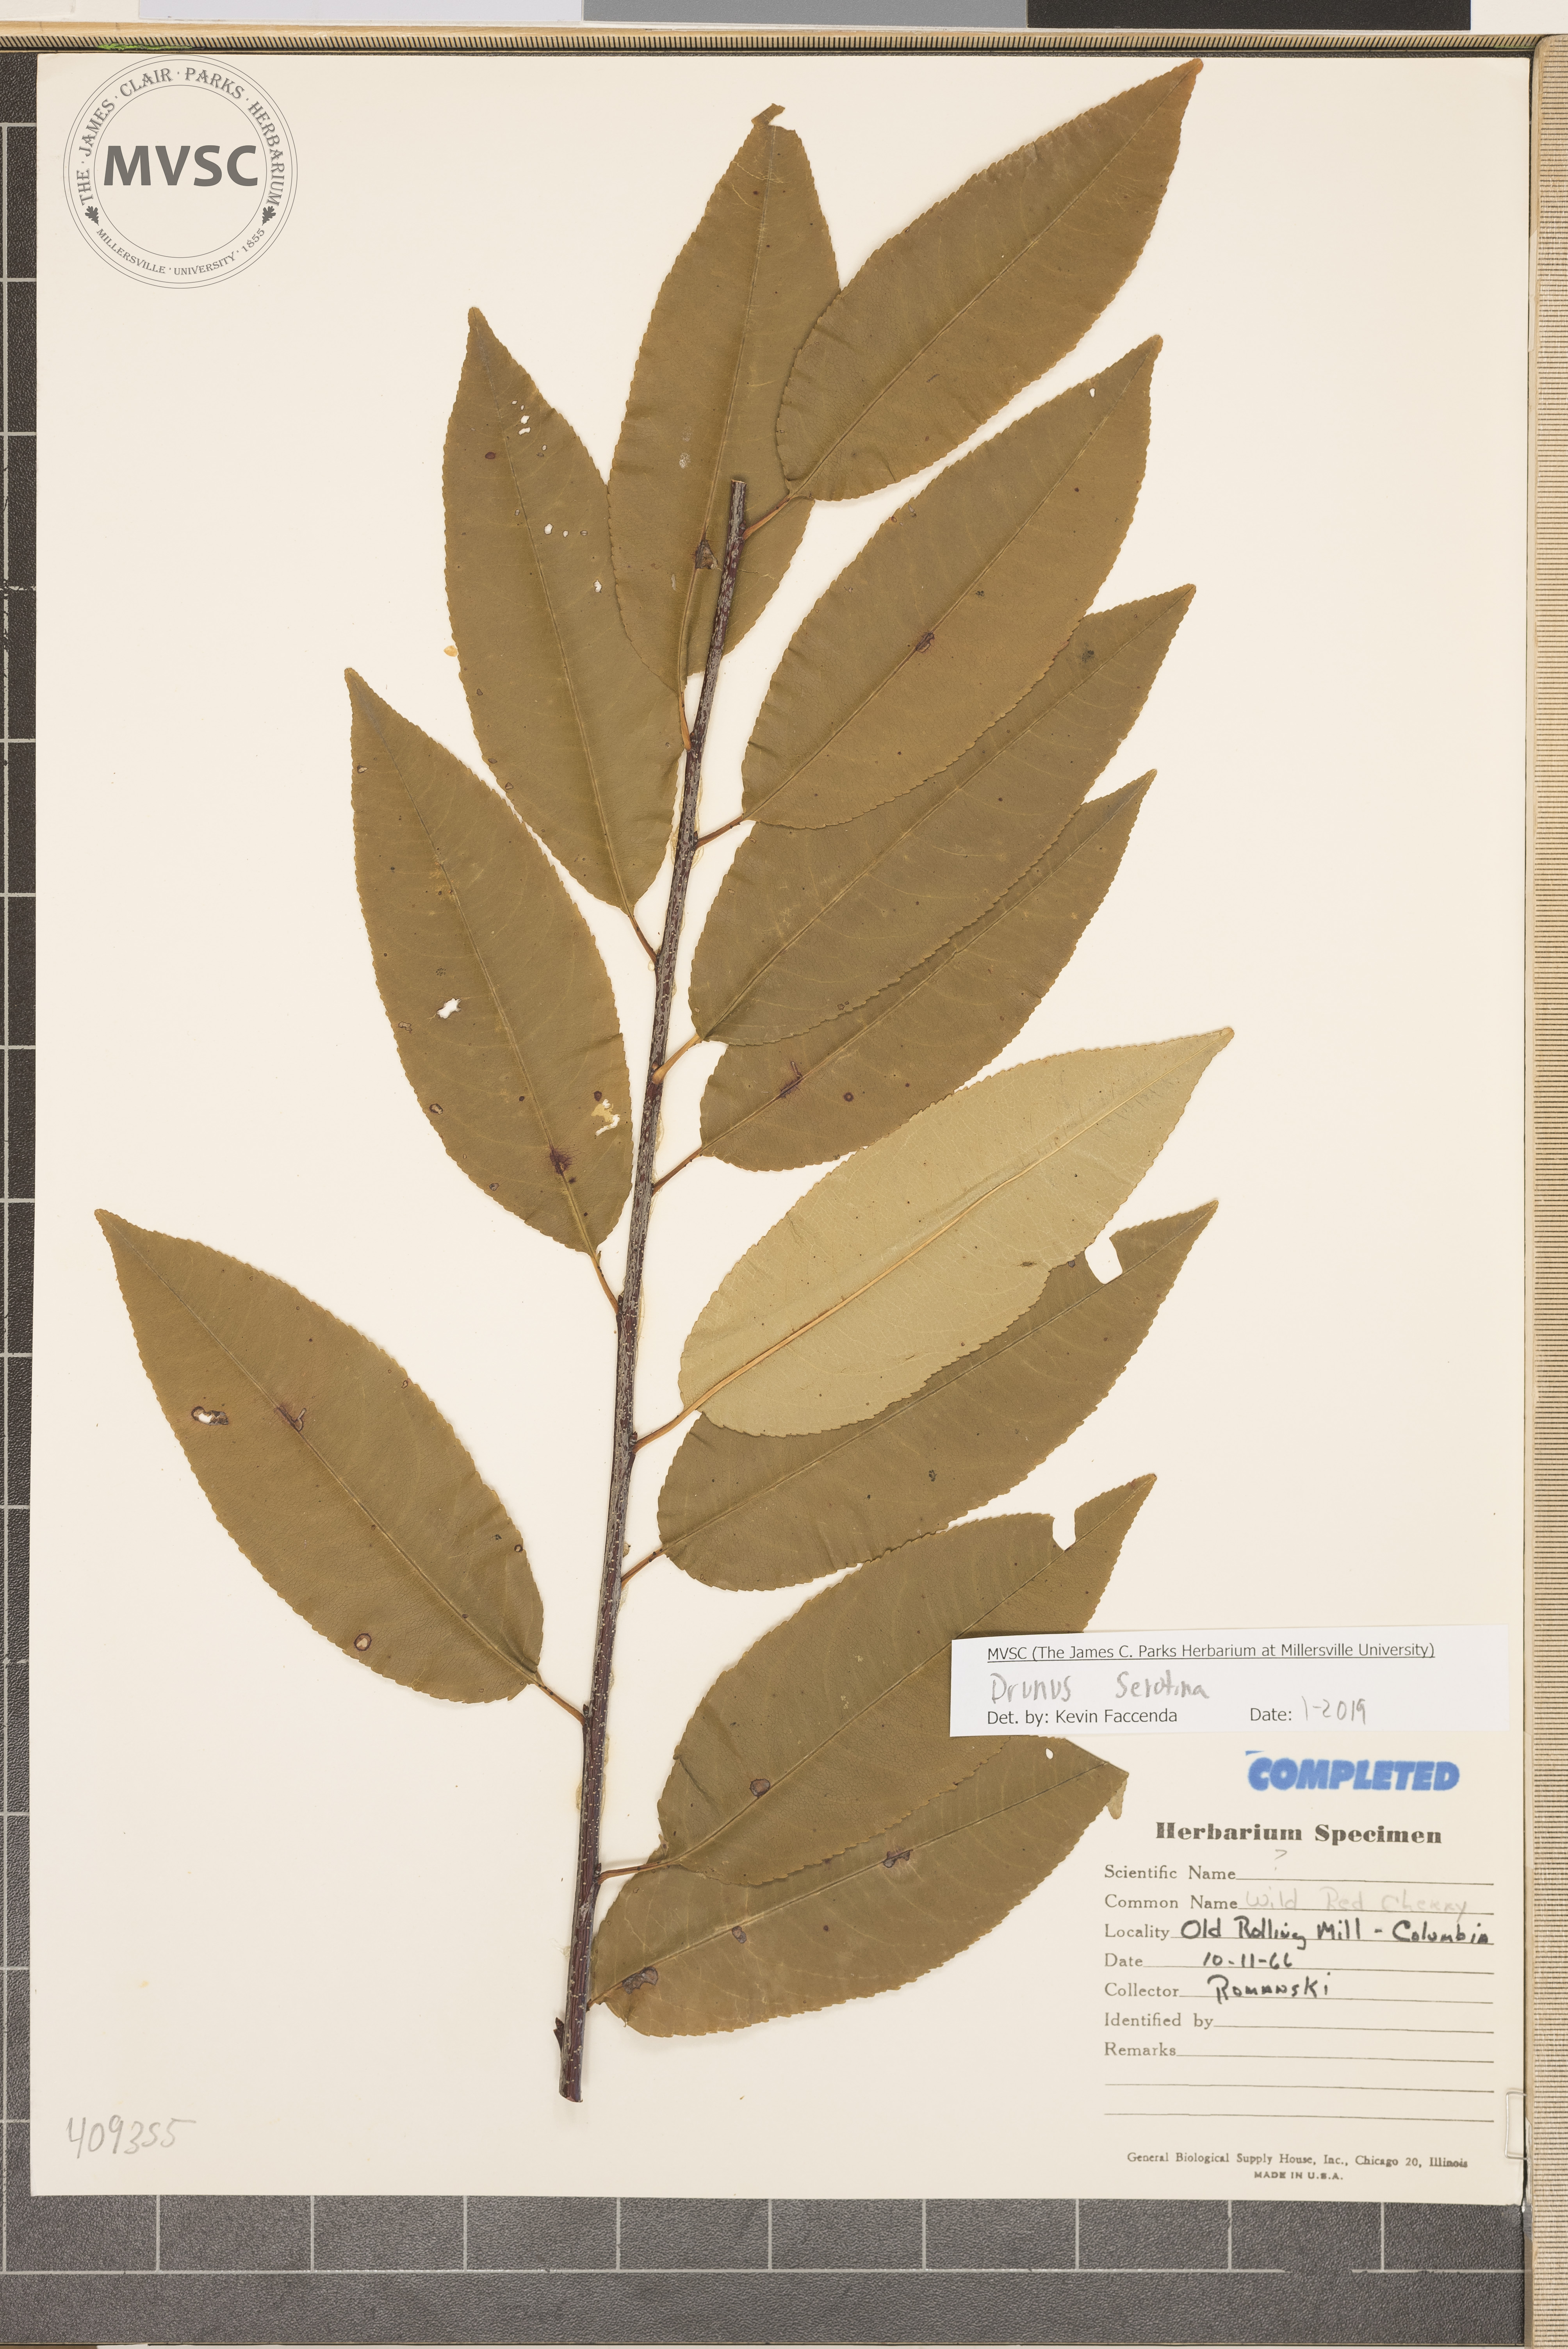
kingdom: Plantae
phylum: Tracheophyta
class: Magnoliopsida
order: Rosales
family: Rosaceae
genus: Prunus
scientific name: Prunus serotina
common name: Black cherry
